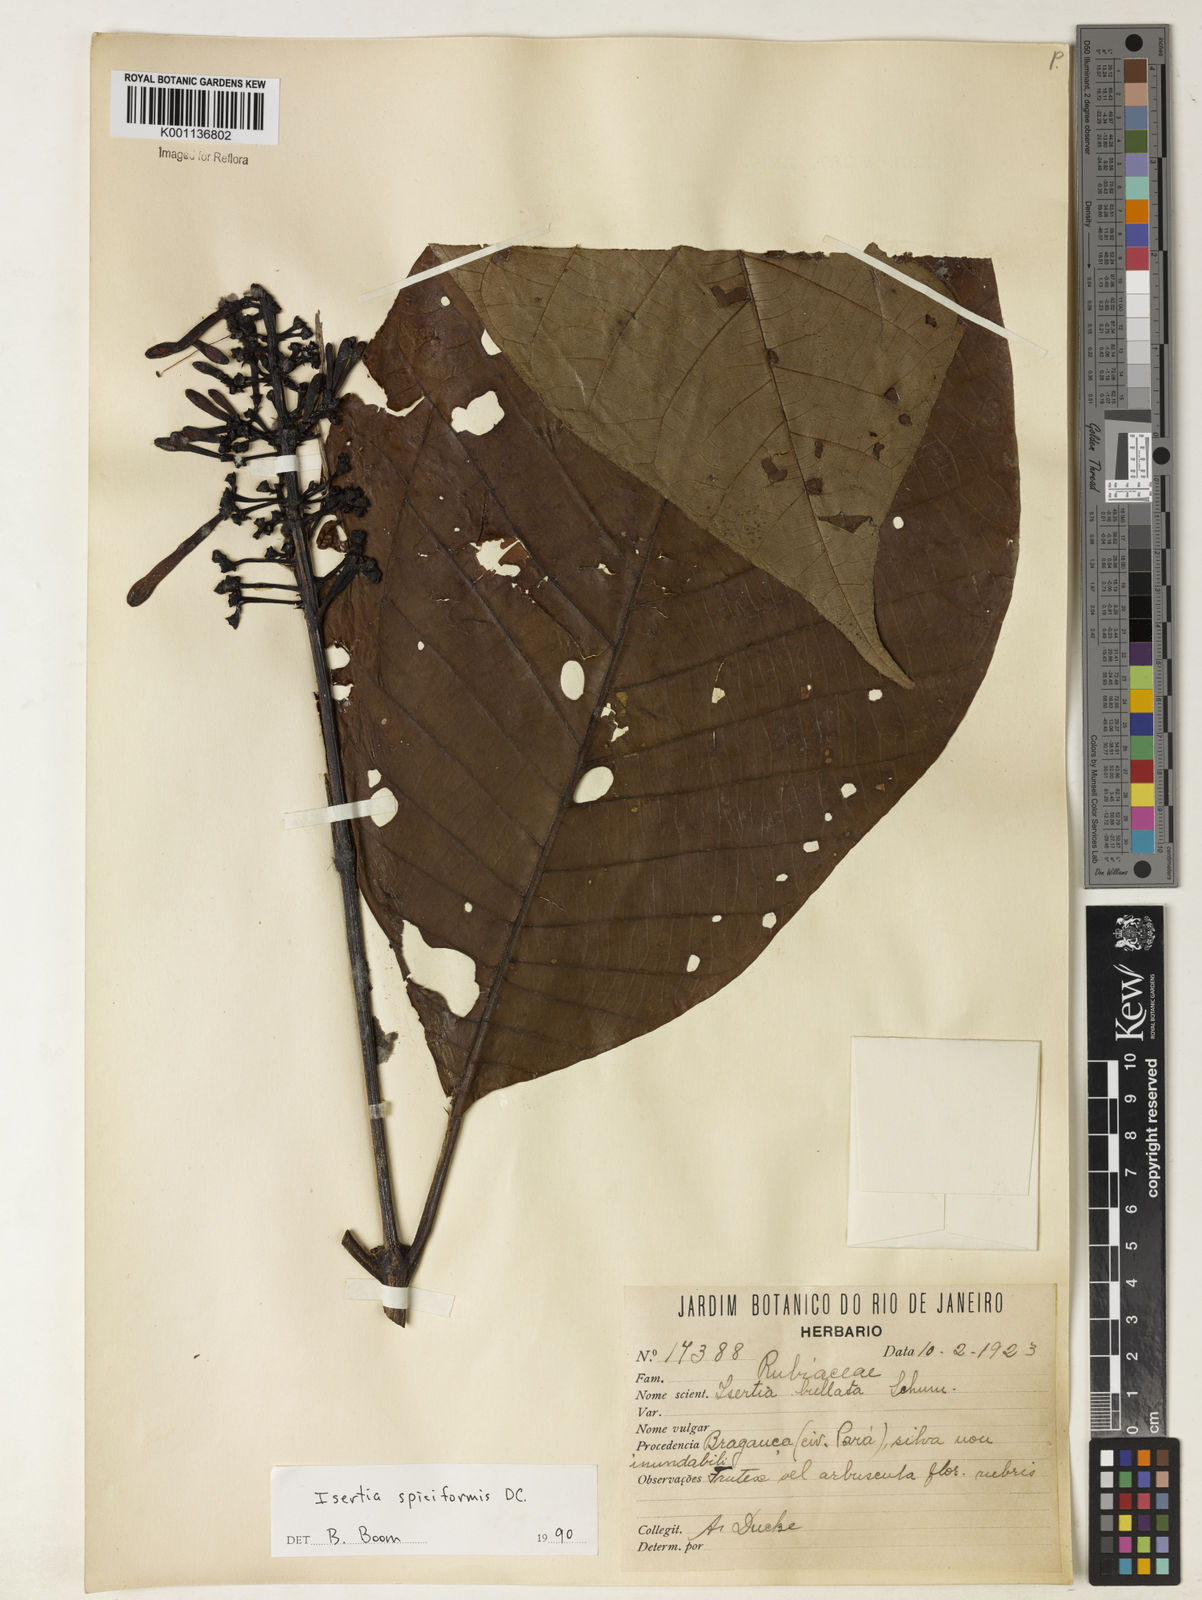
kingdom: Plantae
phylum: Tracheophyta
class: Magnoliopsida
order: Gentianales
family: Rubiaceae
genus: Isertia
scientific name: Isertia spiciformis
